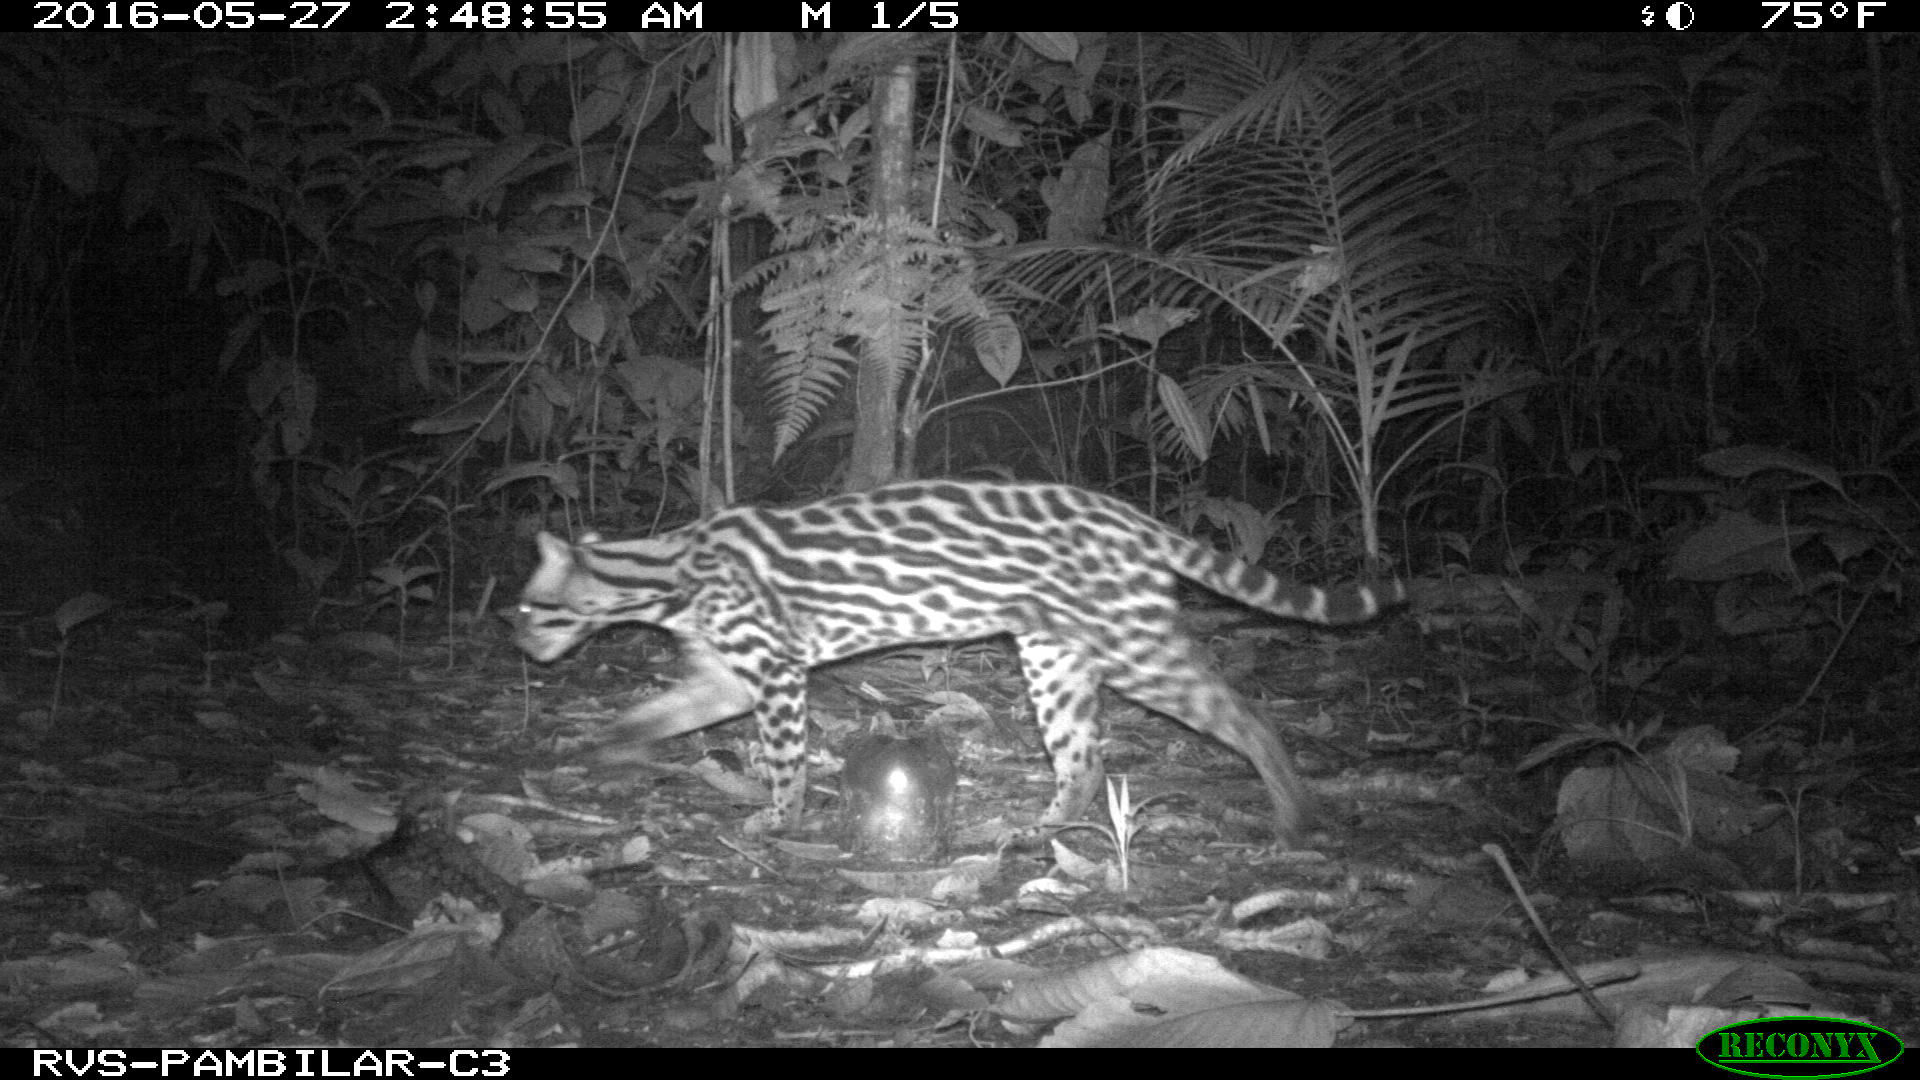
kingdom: Animalia
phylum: Chordata
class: Mammalia
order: Carnivora
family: Felidae
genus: Leopardus
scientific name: Leopardus pardalis
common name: Ocelot
